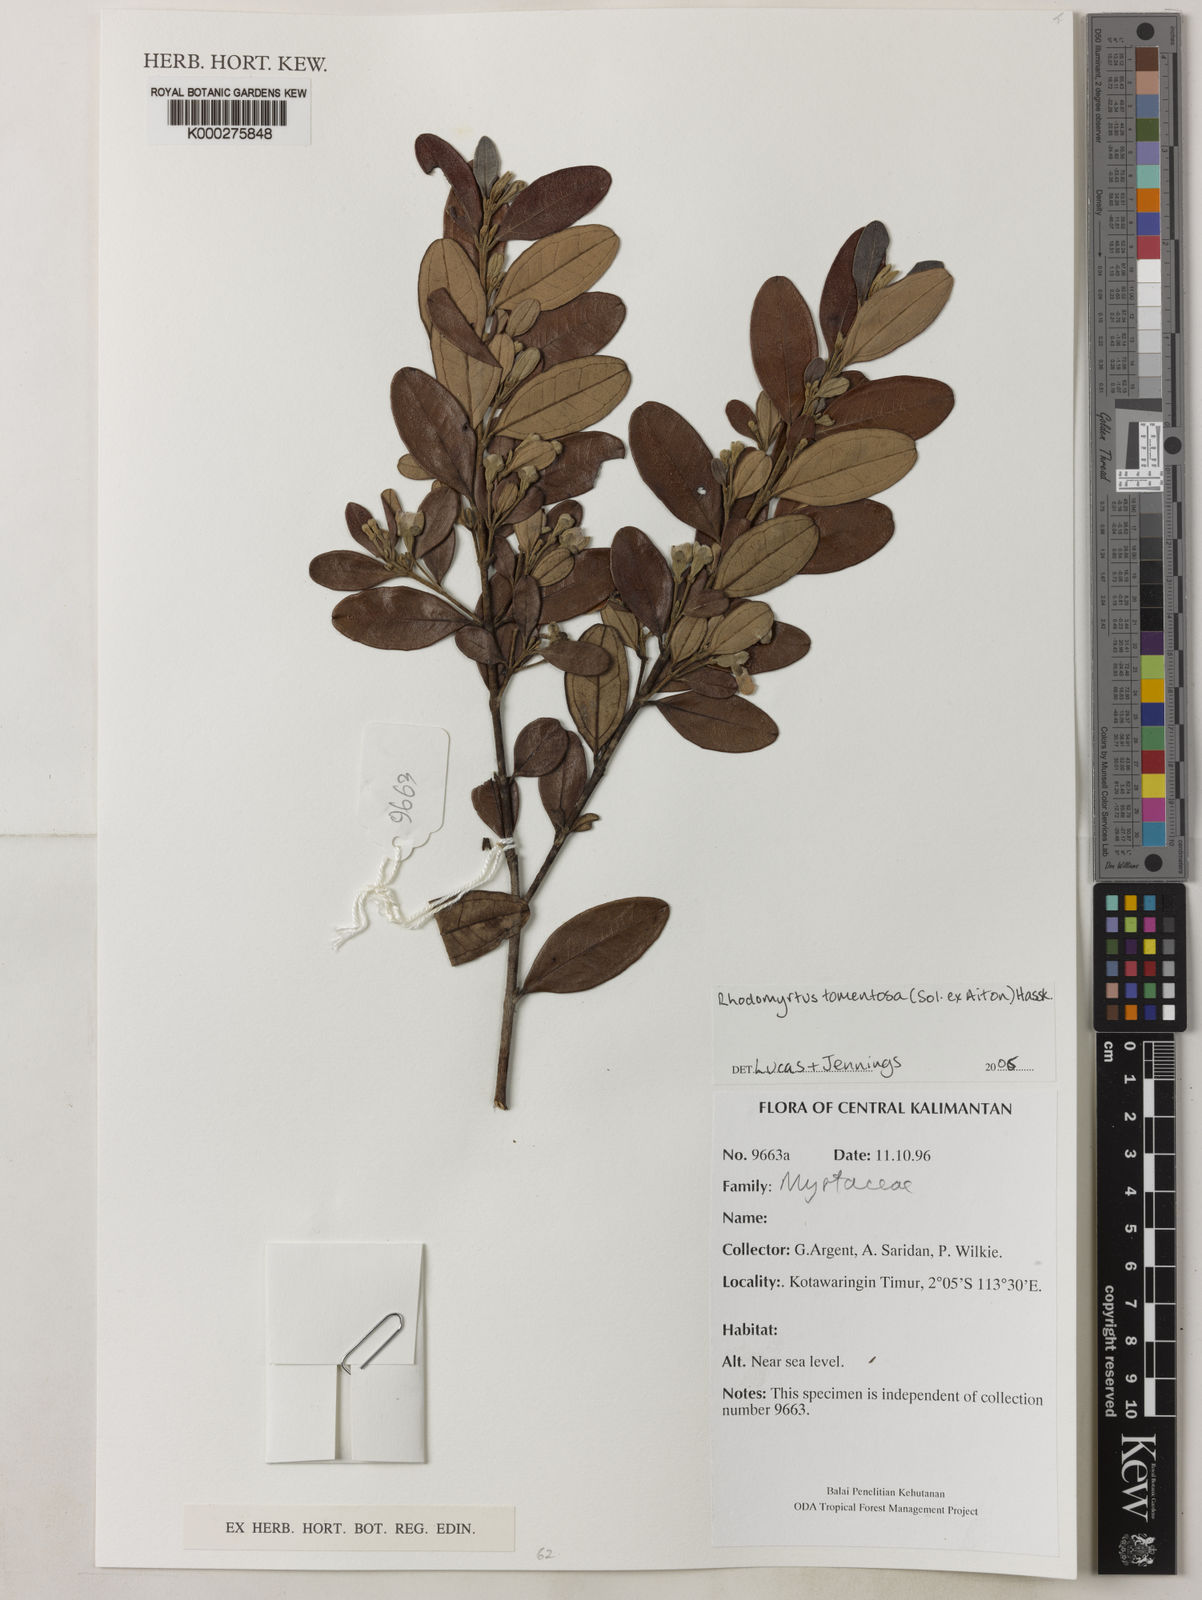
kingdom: Plantae
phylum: Tracheophyta
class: Magnoliopsida
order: Myrtales
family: Myrtaceae
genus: Rhodomyrtus
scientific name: Rhodomyrtus tomentosa
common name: Rose myrtle
